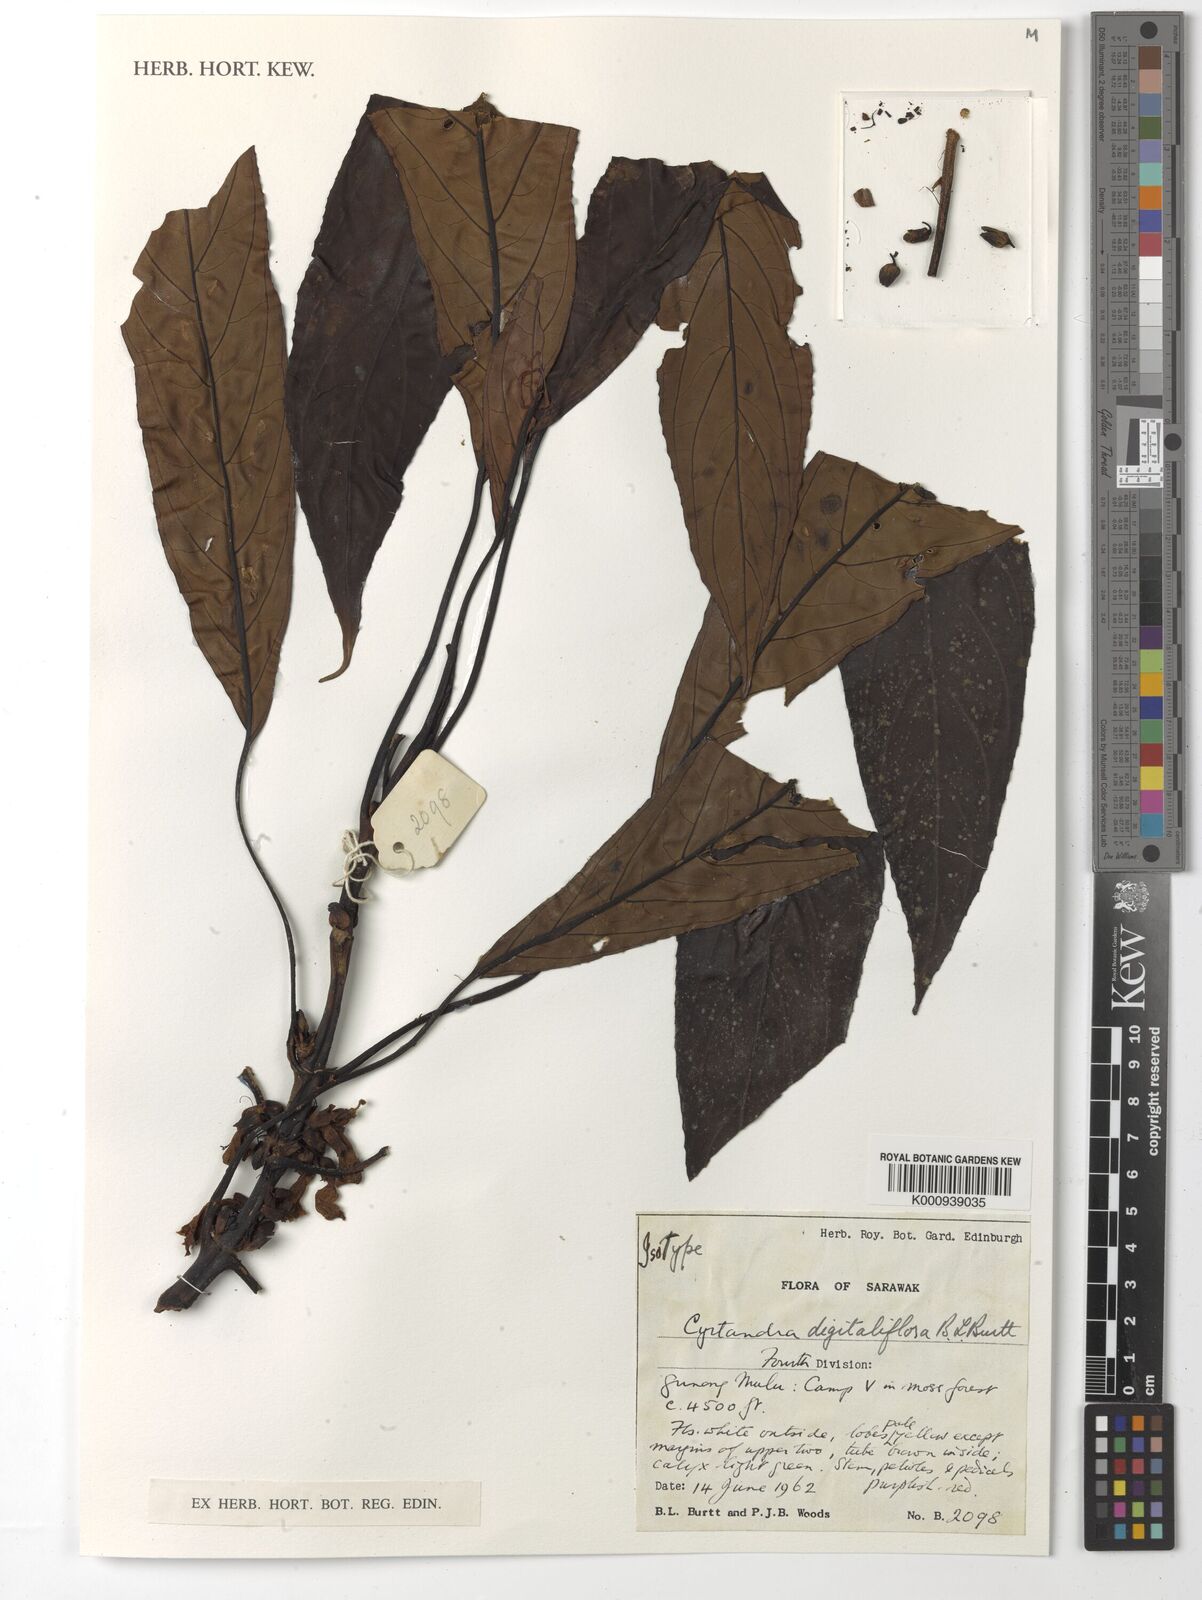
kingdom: Plantae
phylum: Tracheophyta
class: Magnoliopsida
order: Lamiales
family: Gesneriaceae
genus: Cyrtandra
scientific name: Cyrtandra digitaliflora
